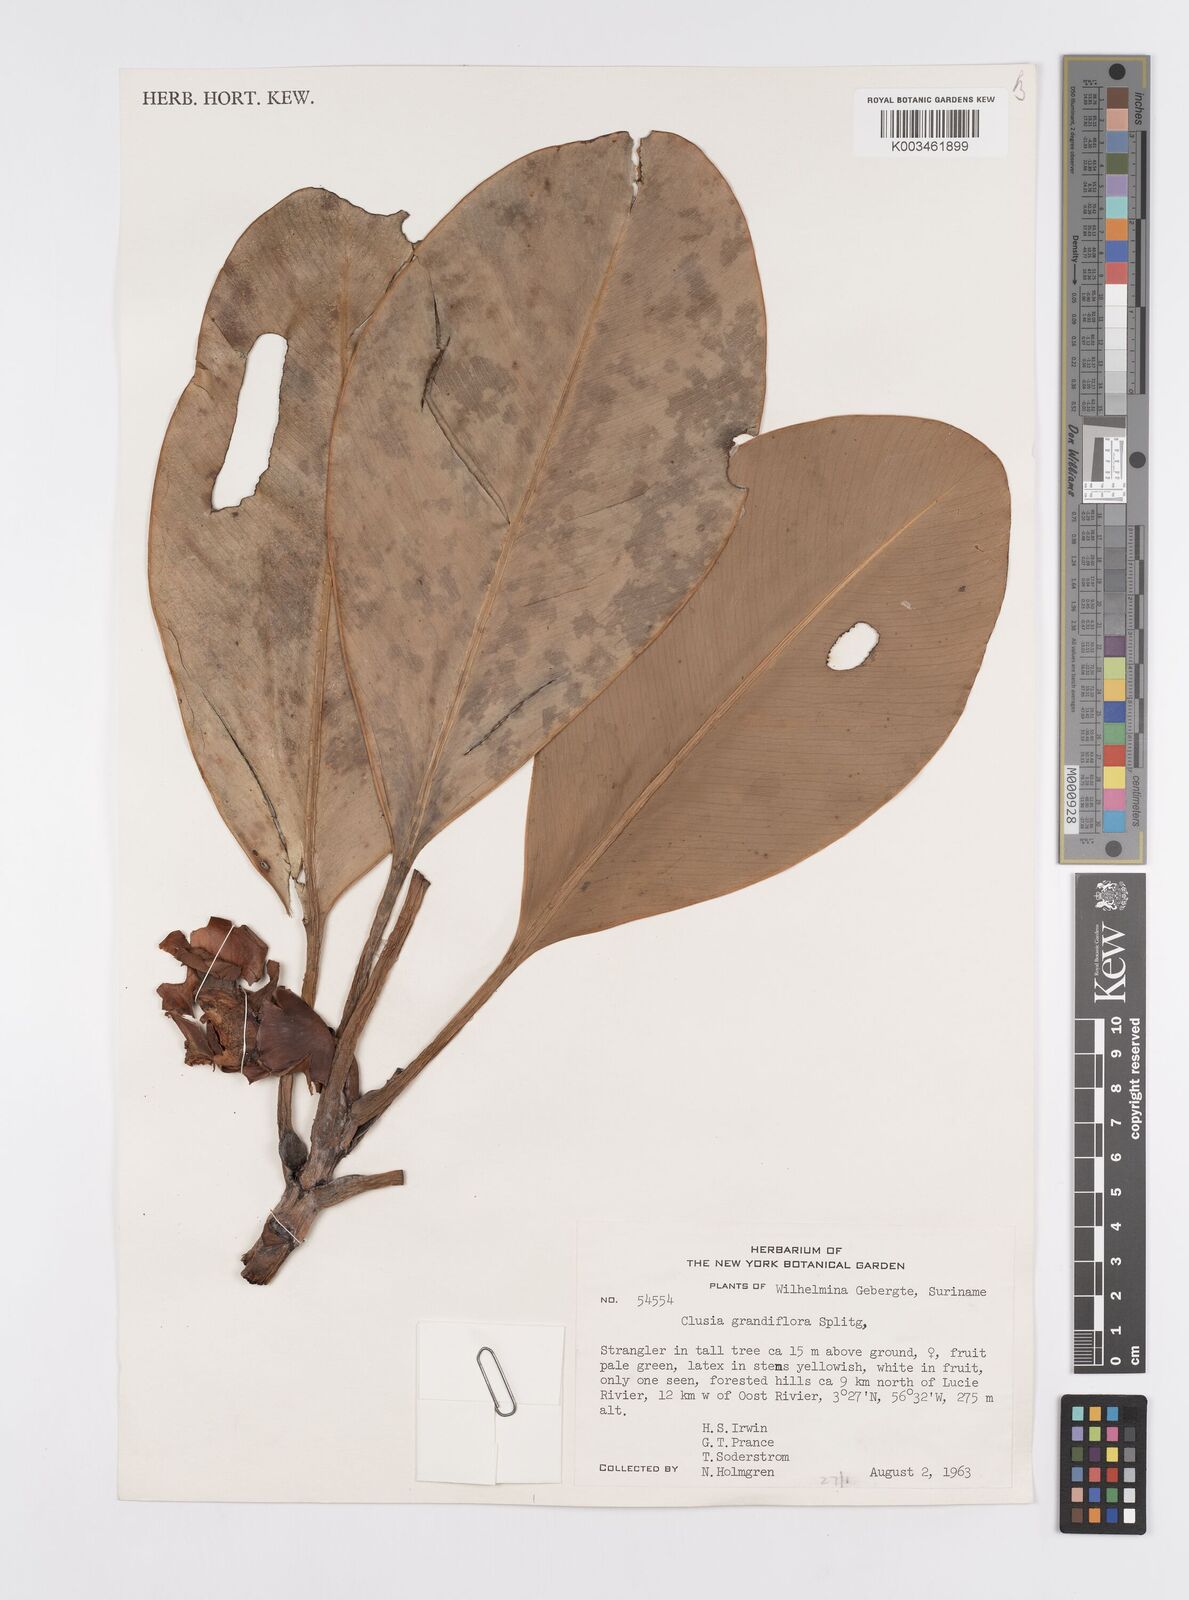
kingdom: Plantae
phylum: Tracheophyta
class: Magnoliopsida
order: Malpighiales
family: Clusiaceae
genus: Clusia
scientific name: Clusia grandiflora
